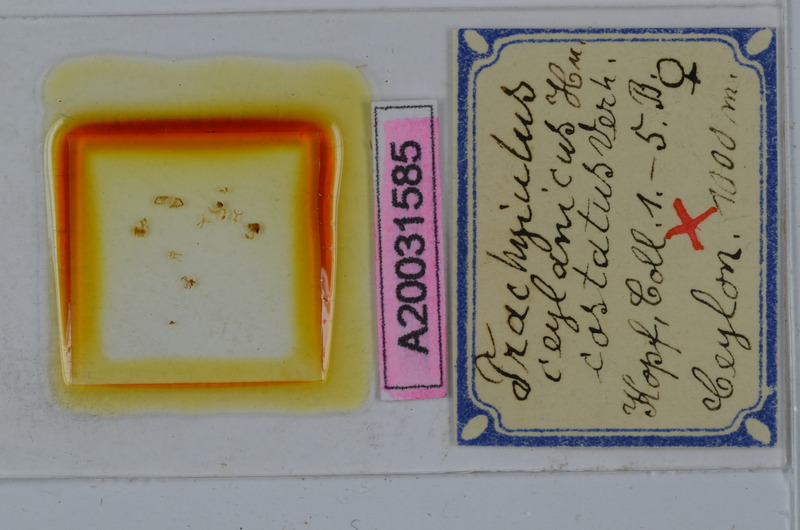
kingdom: Animalia
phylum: Arthropoda
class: Diplopoda
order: Spirostreptida
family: Cambalopsidae
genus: Trachyjulus
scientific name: Trachyjulus ceylanicus
